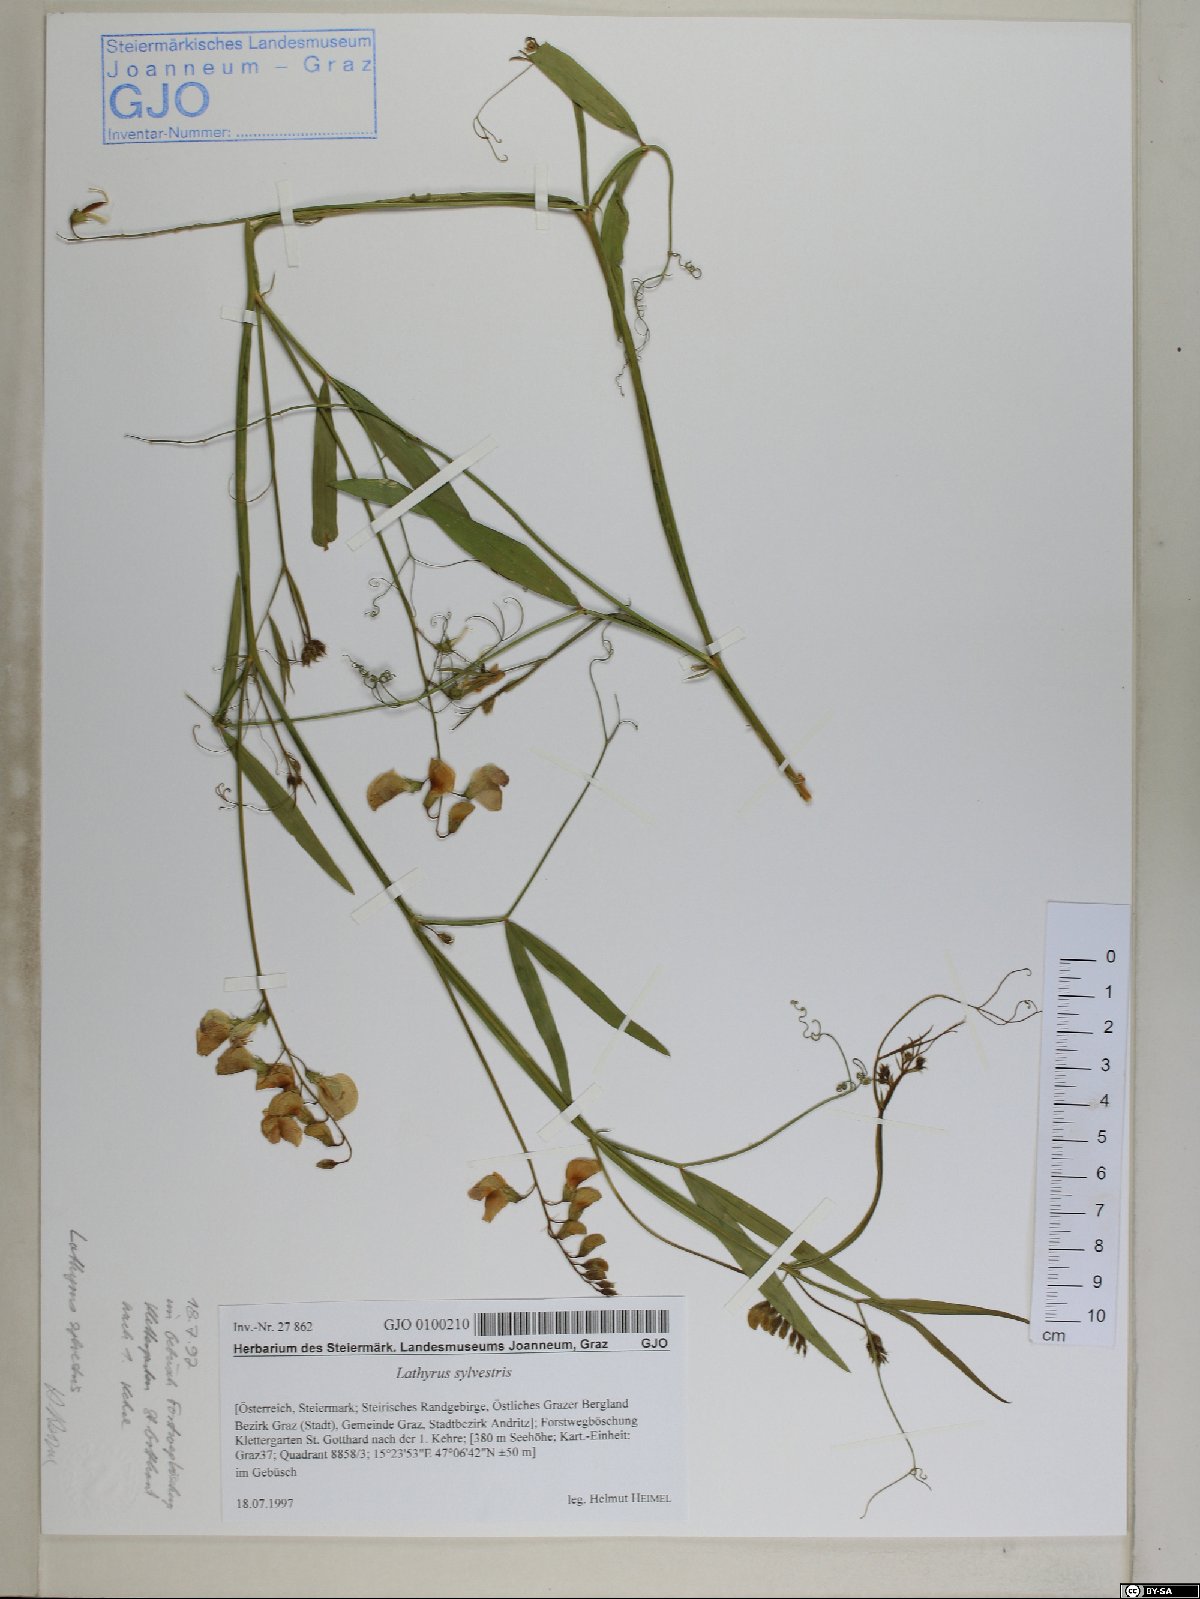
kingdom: Plantae
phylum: Tracheophyta
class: Magnoliopsida
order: Fabales
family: Fabaceae
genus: Lathyrus
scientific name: Lathyrus sylvestris
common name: Flat pea
